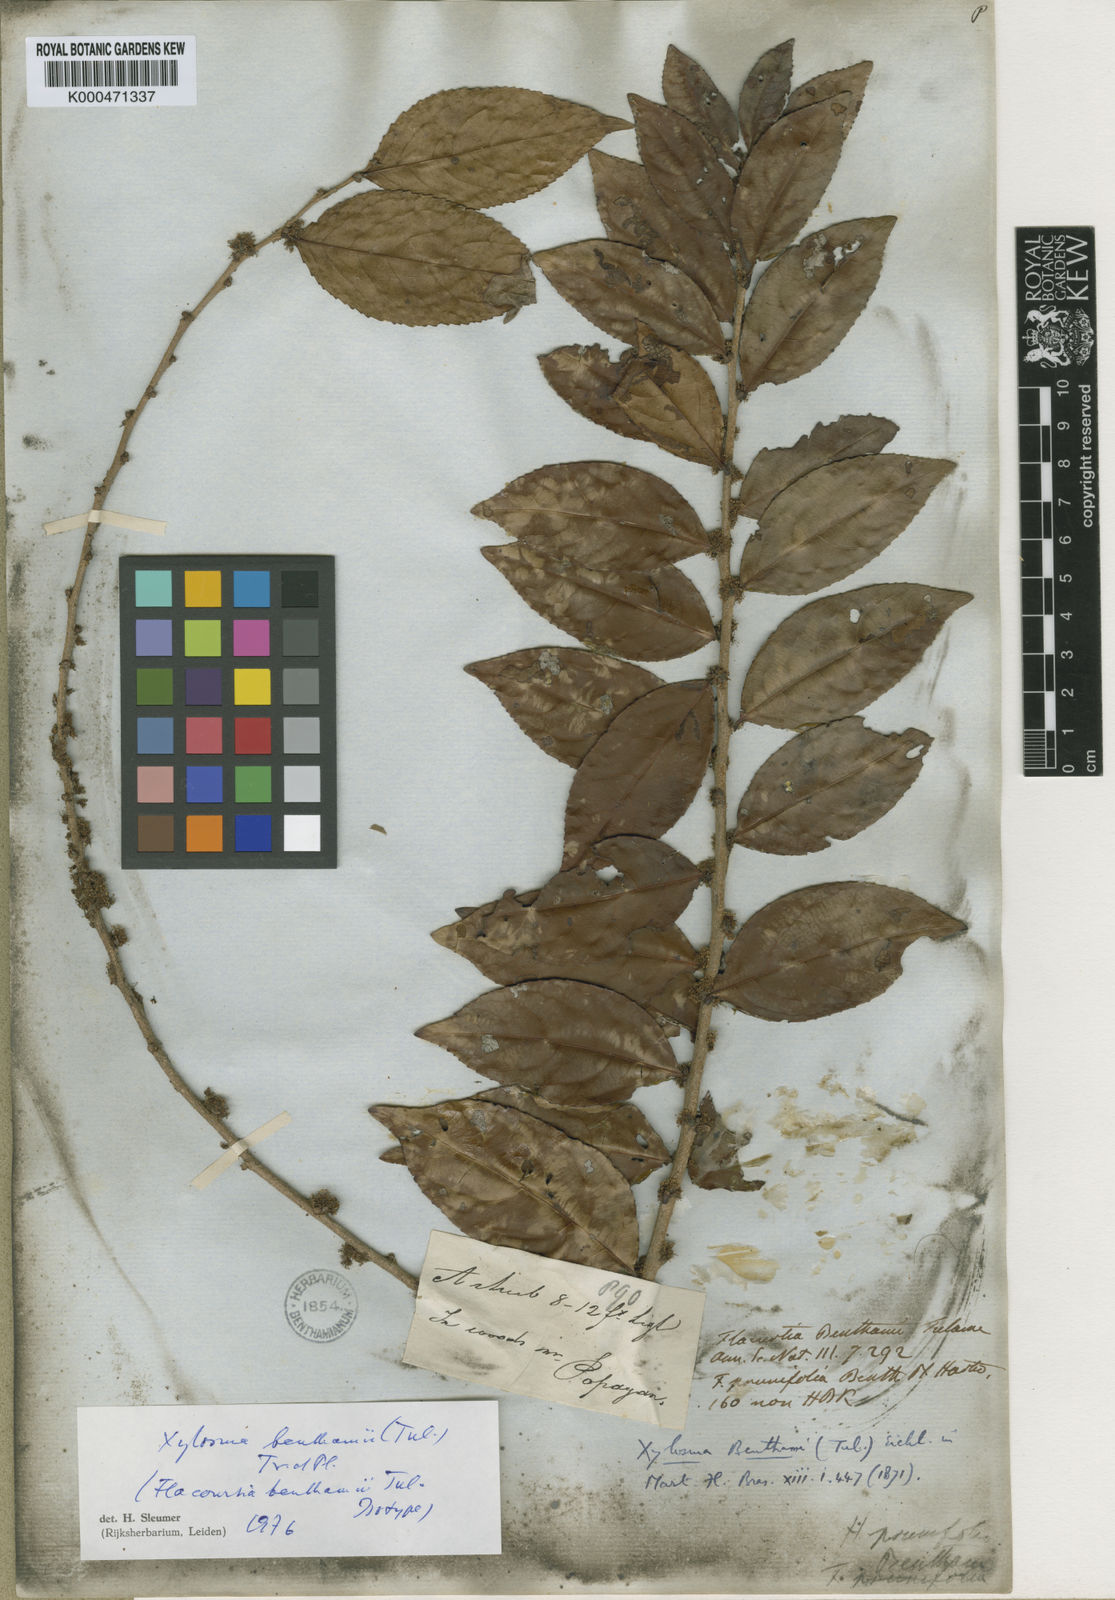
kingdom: Plantae
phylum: Tracheophyta
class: Magnoliopsida
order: Malpighiales
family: Salicaceae
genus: Xylosma
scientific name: Xylosma benthamii
